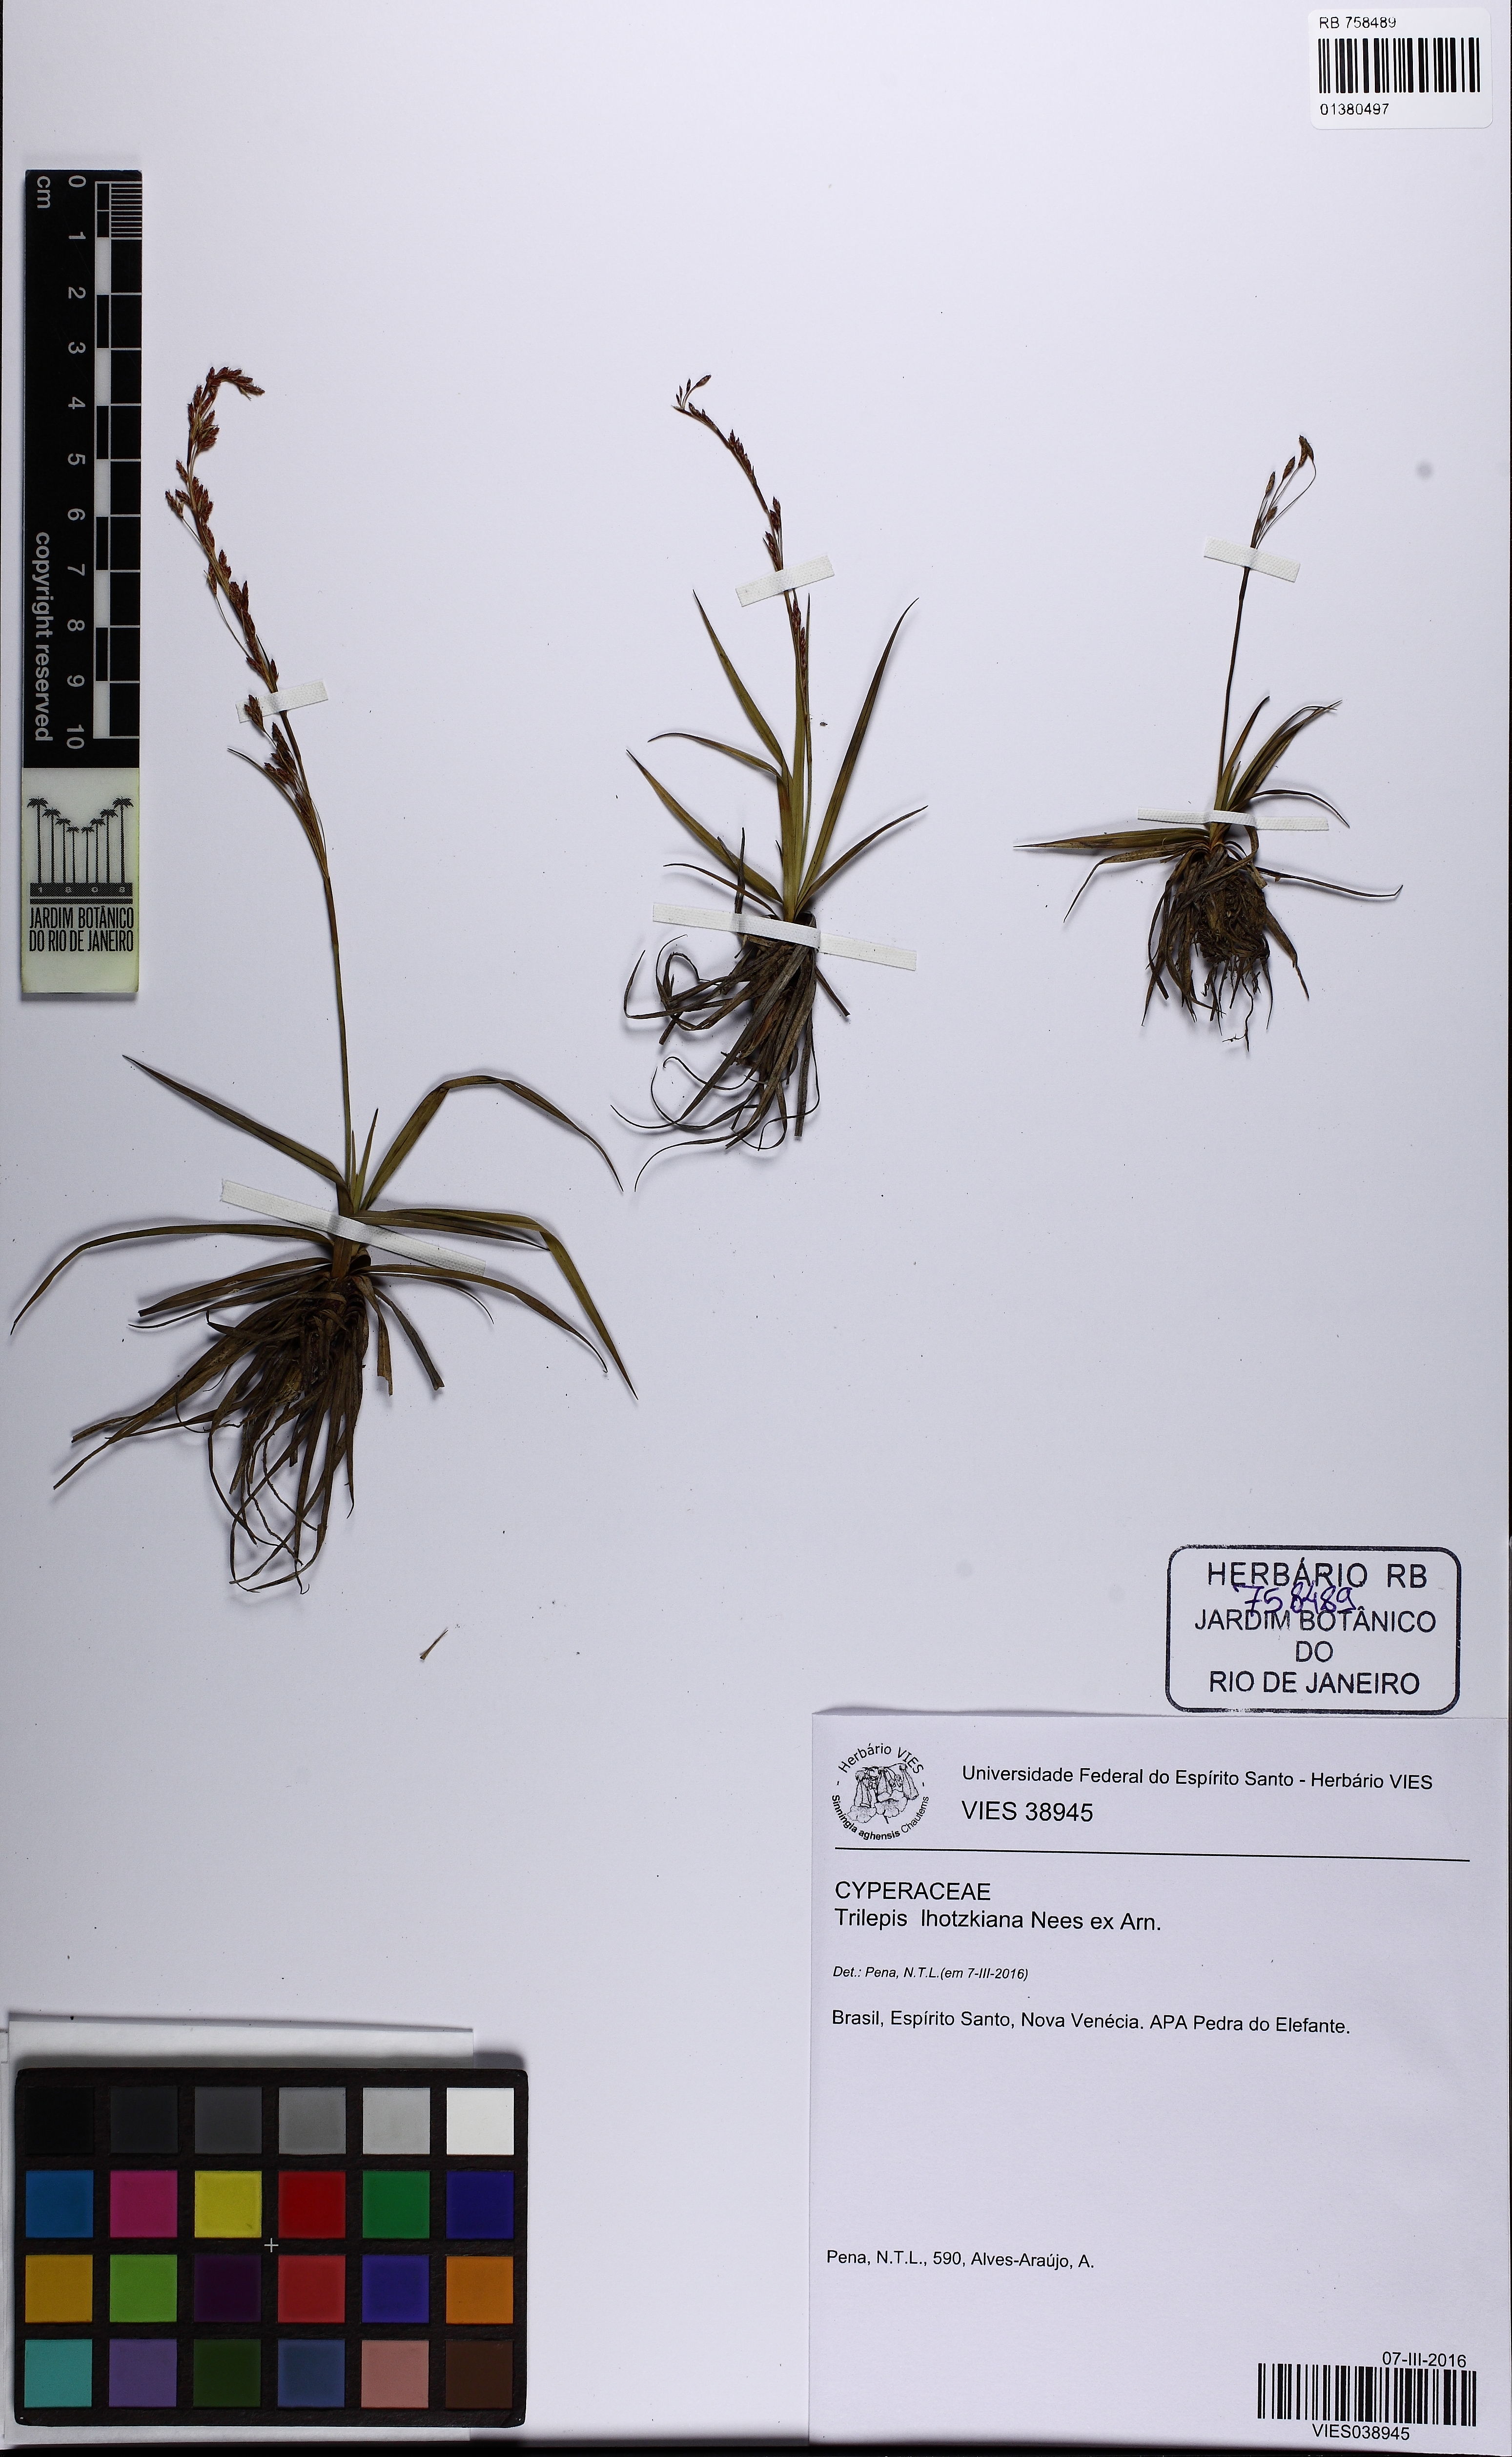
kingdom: Plantae
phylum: Tracheophyta
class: Liliopsida
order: Poales
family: Cyperaceae
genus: Trilepis
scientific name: Trilepis lhotzkiana
